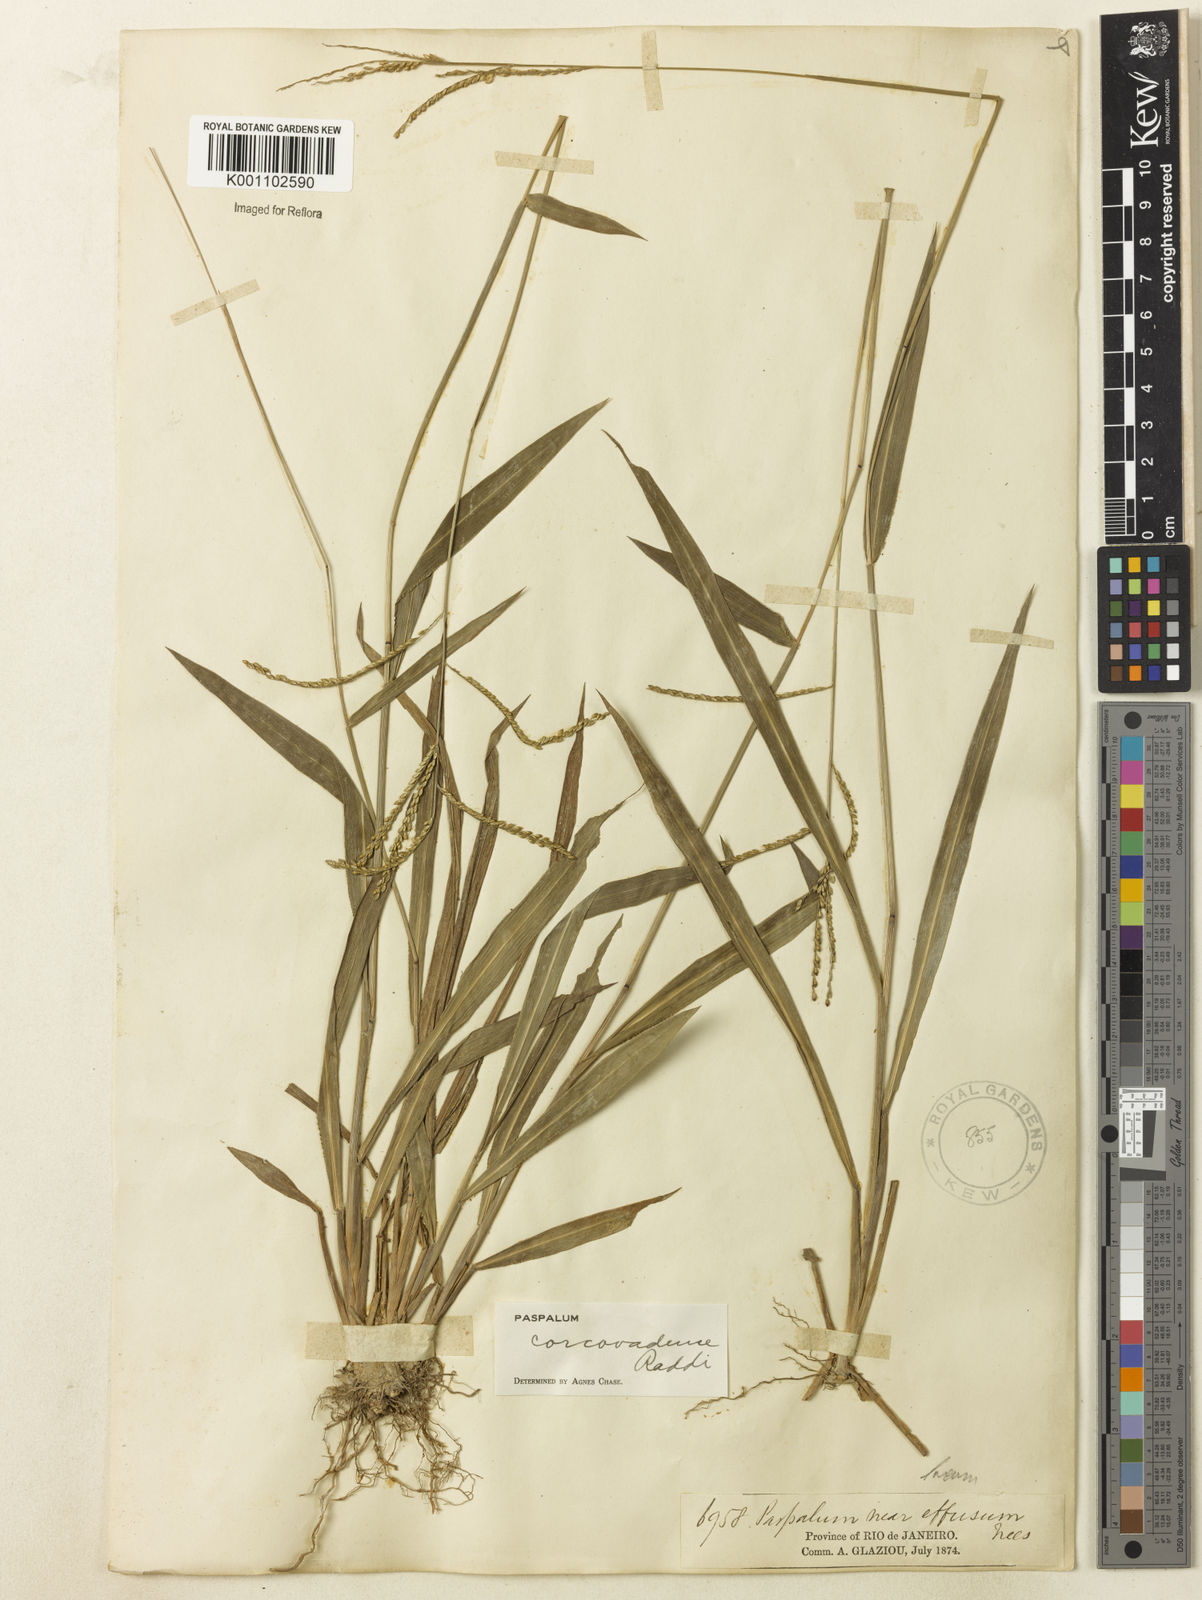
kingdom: Plantae
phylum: Tracheophyta
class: Liliopsida
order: Poales
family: Poaceae
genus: Paspalum
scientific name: Paspalum corcovadense
